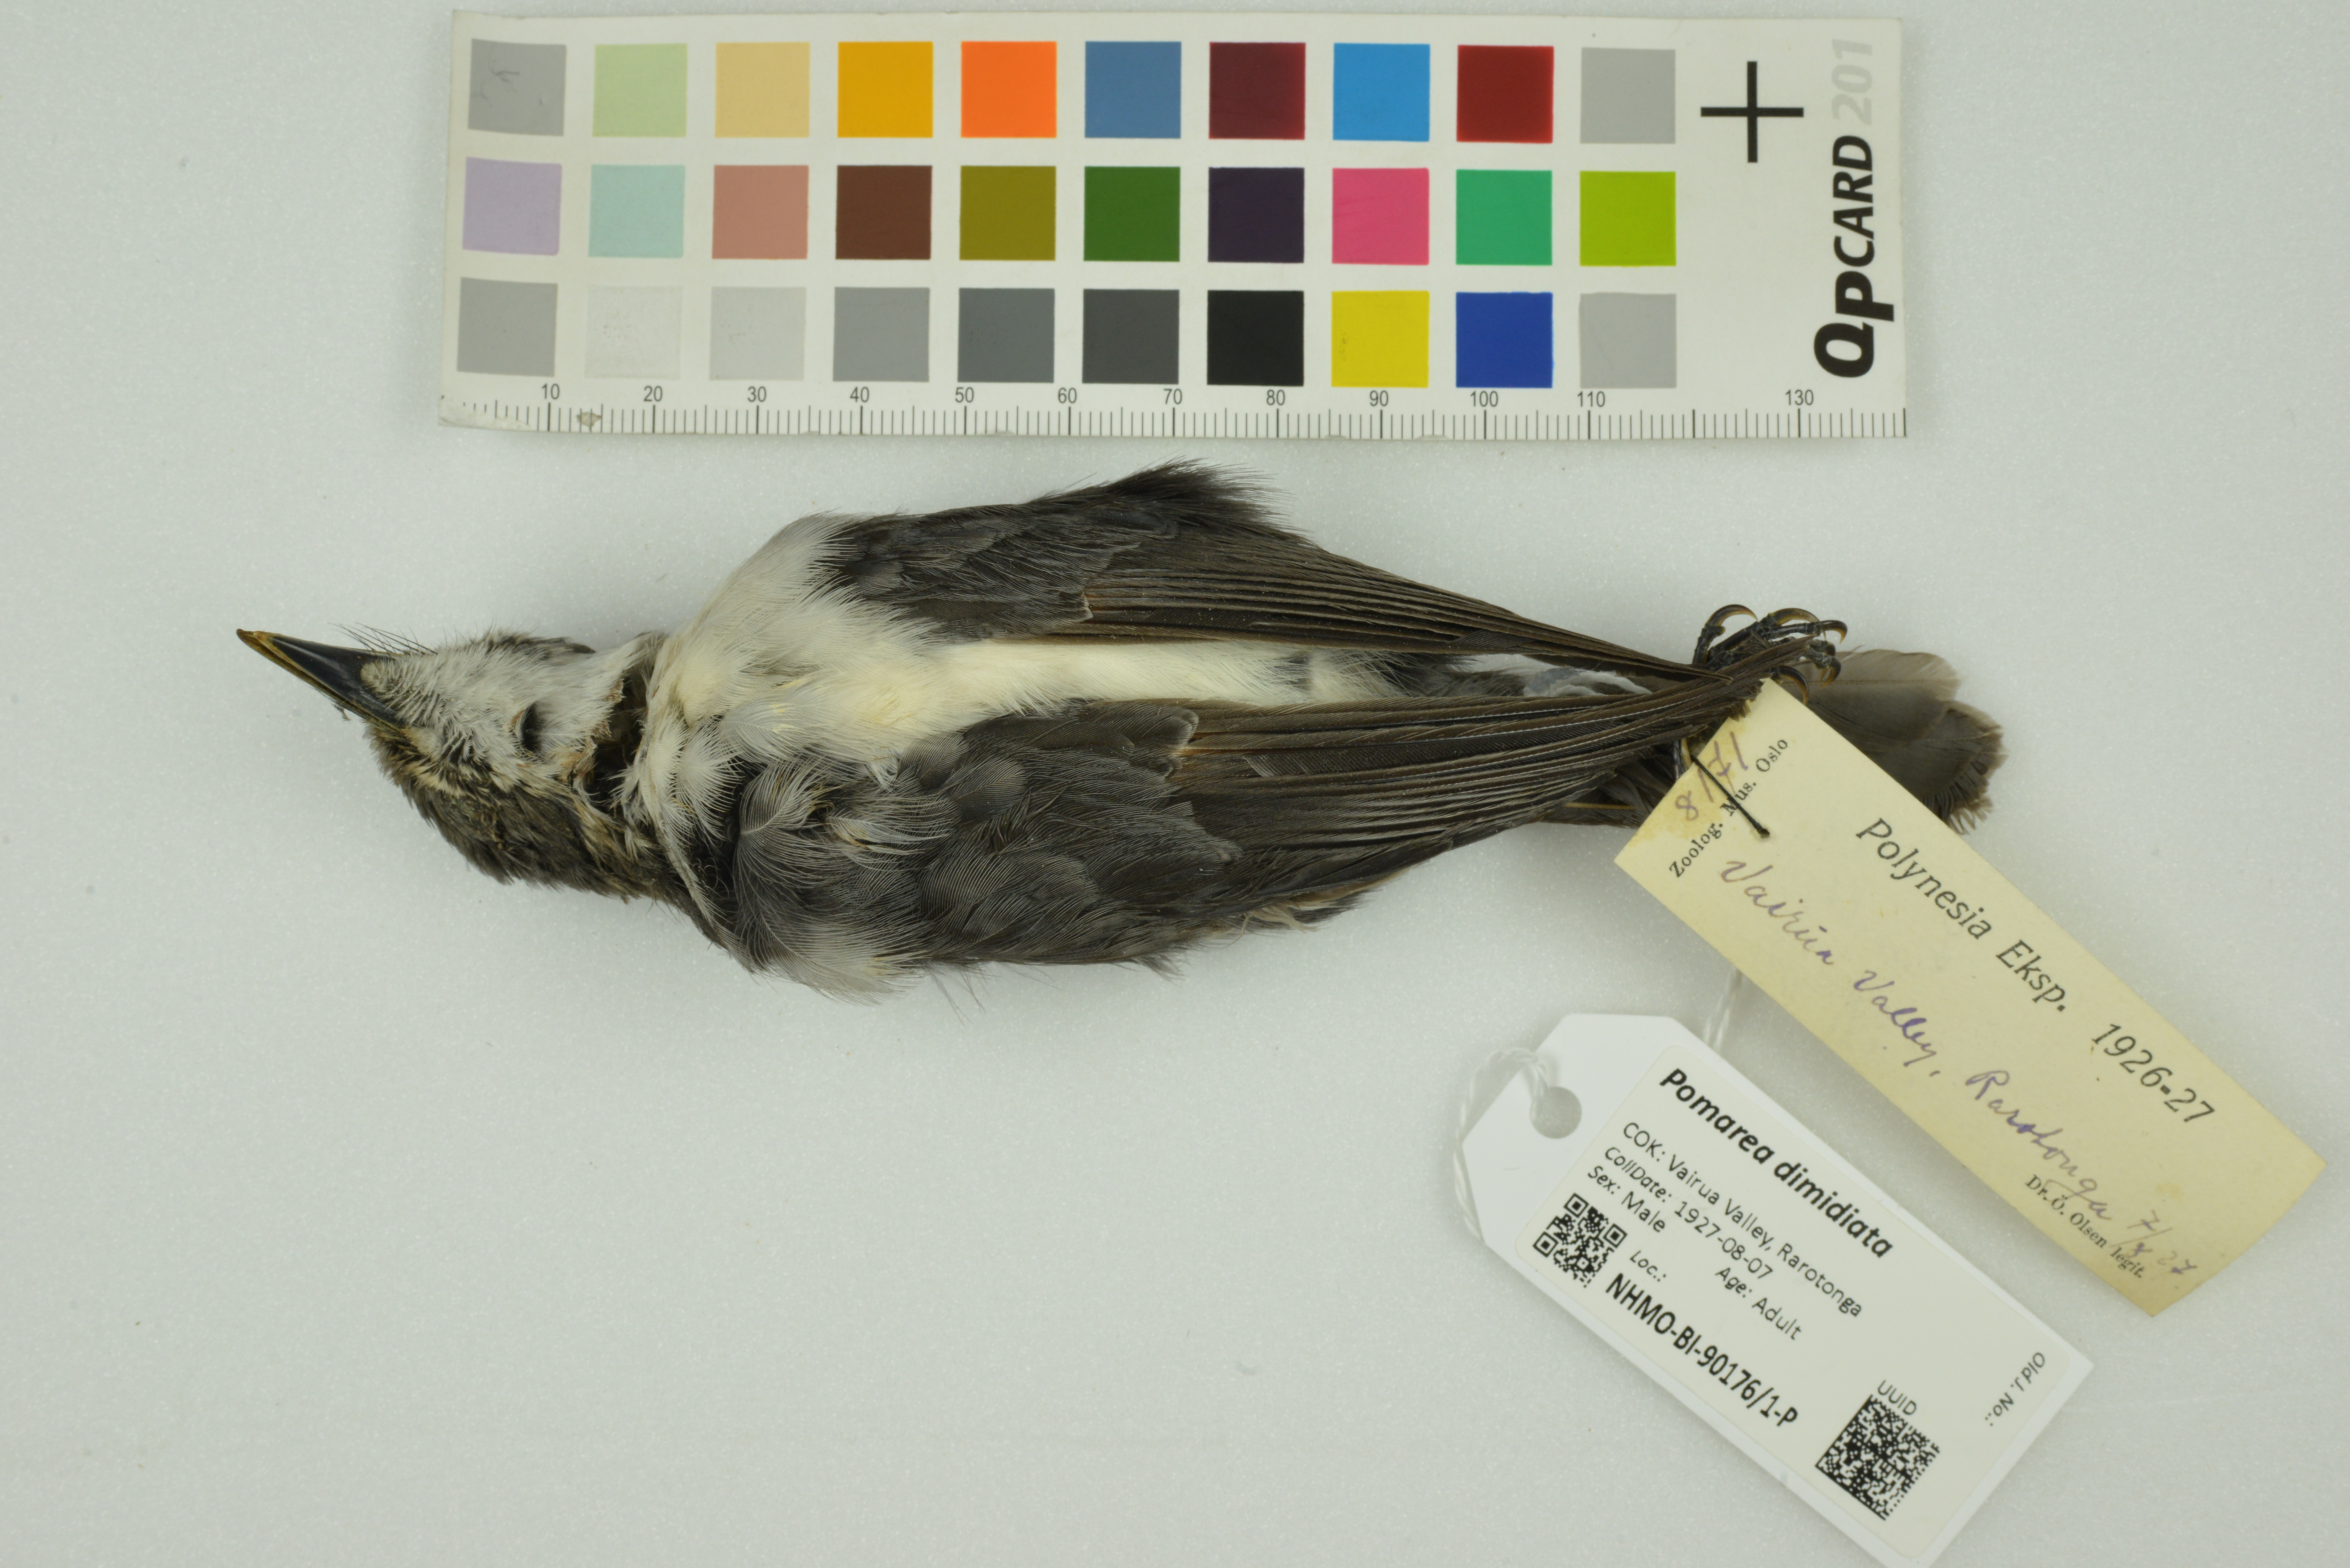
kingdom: Animalia
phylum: Chordata
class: Aves
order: Passeriformes
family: Monarchidae
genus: Pomarea
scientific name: Pomarea dimidiata
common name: Rarotonga monarch
